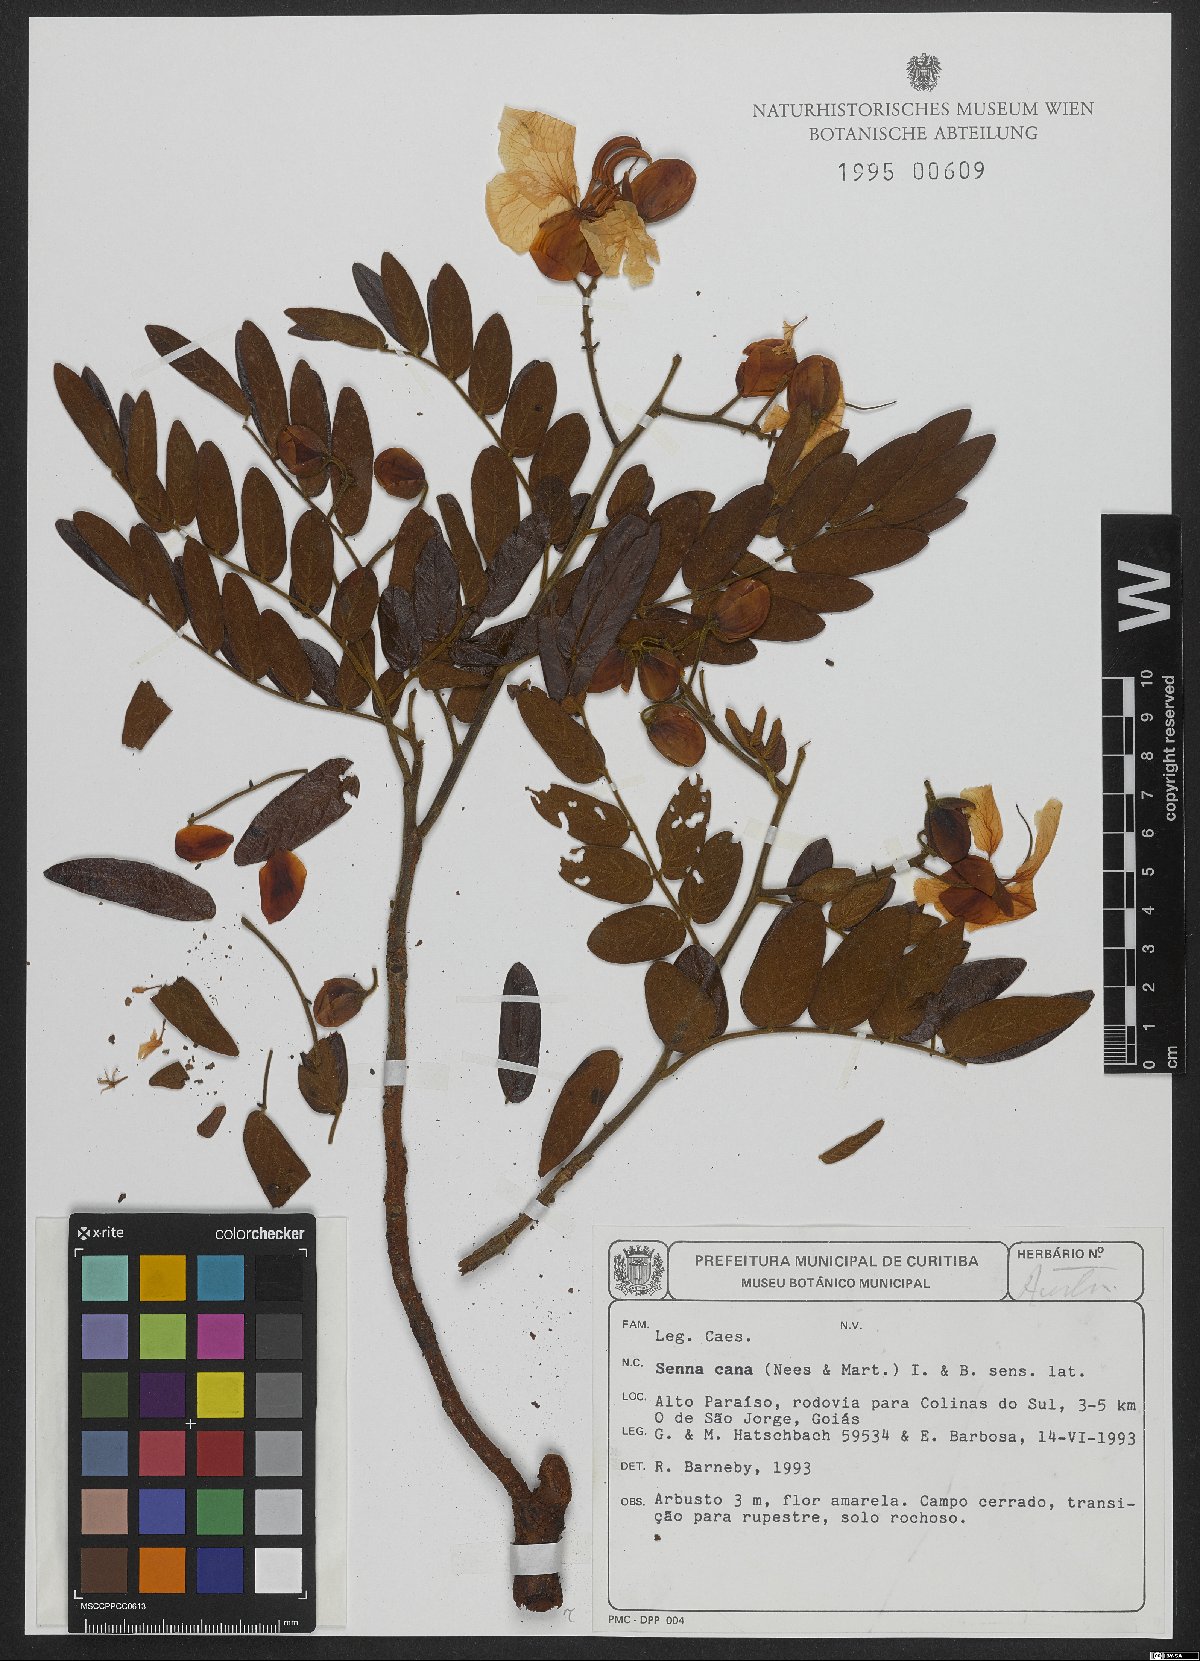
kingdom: Plantae
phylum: Tracheophyta
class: Magnoliopsida
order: Fabales
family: Fabaceae
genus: Senna
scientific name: Senna cana
